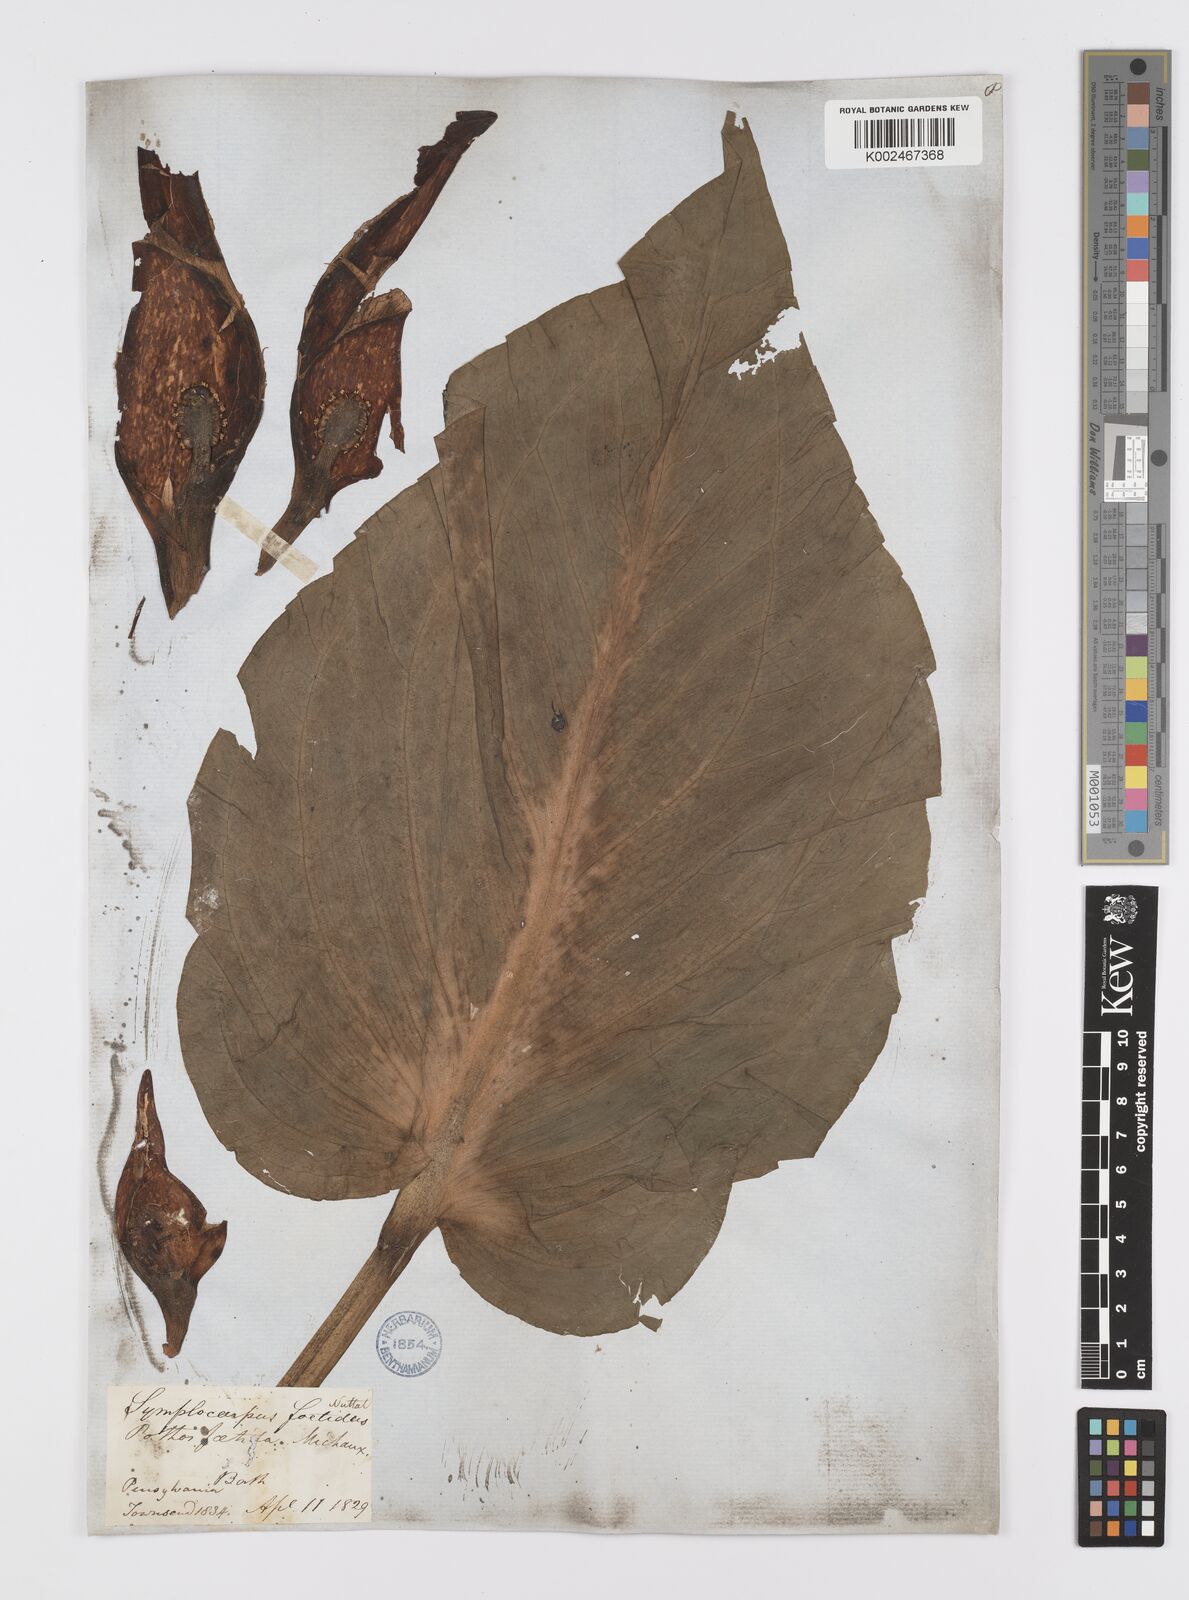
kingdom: Plantae
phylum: Tracheophyta
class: Liliopsida
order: Alismatales
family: Araceae
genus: Symplocarpus
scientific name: Symplocarpus foetidus
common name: Eastern skunk cabbage
